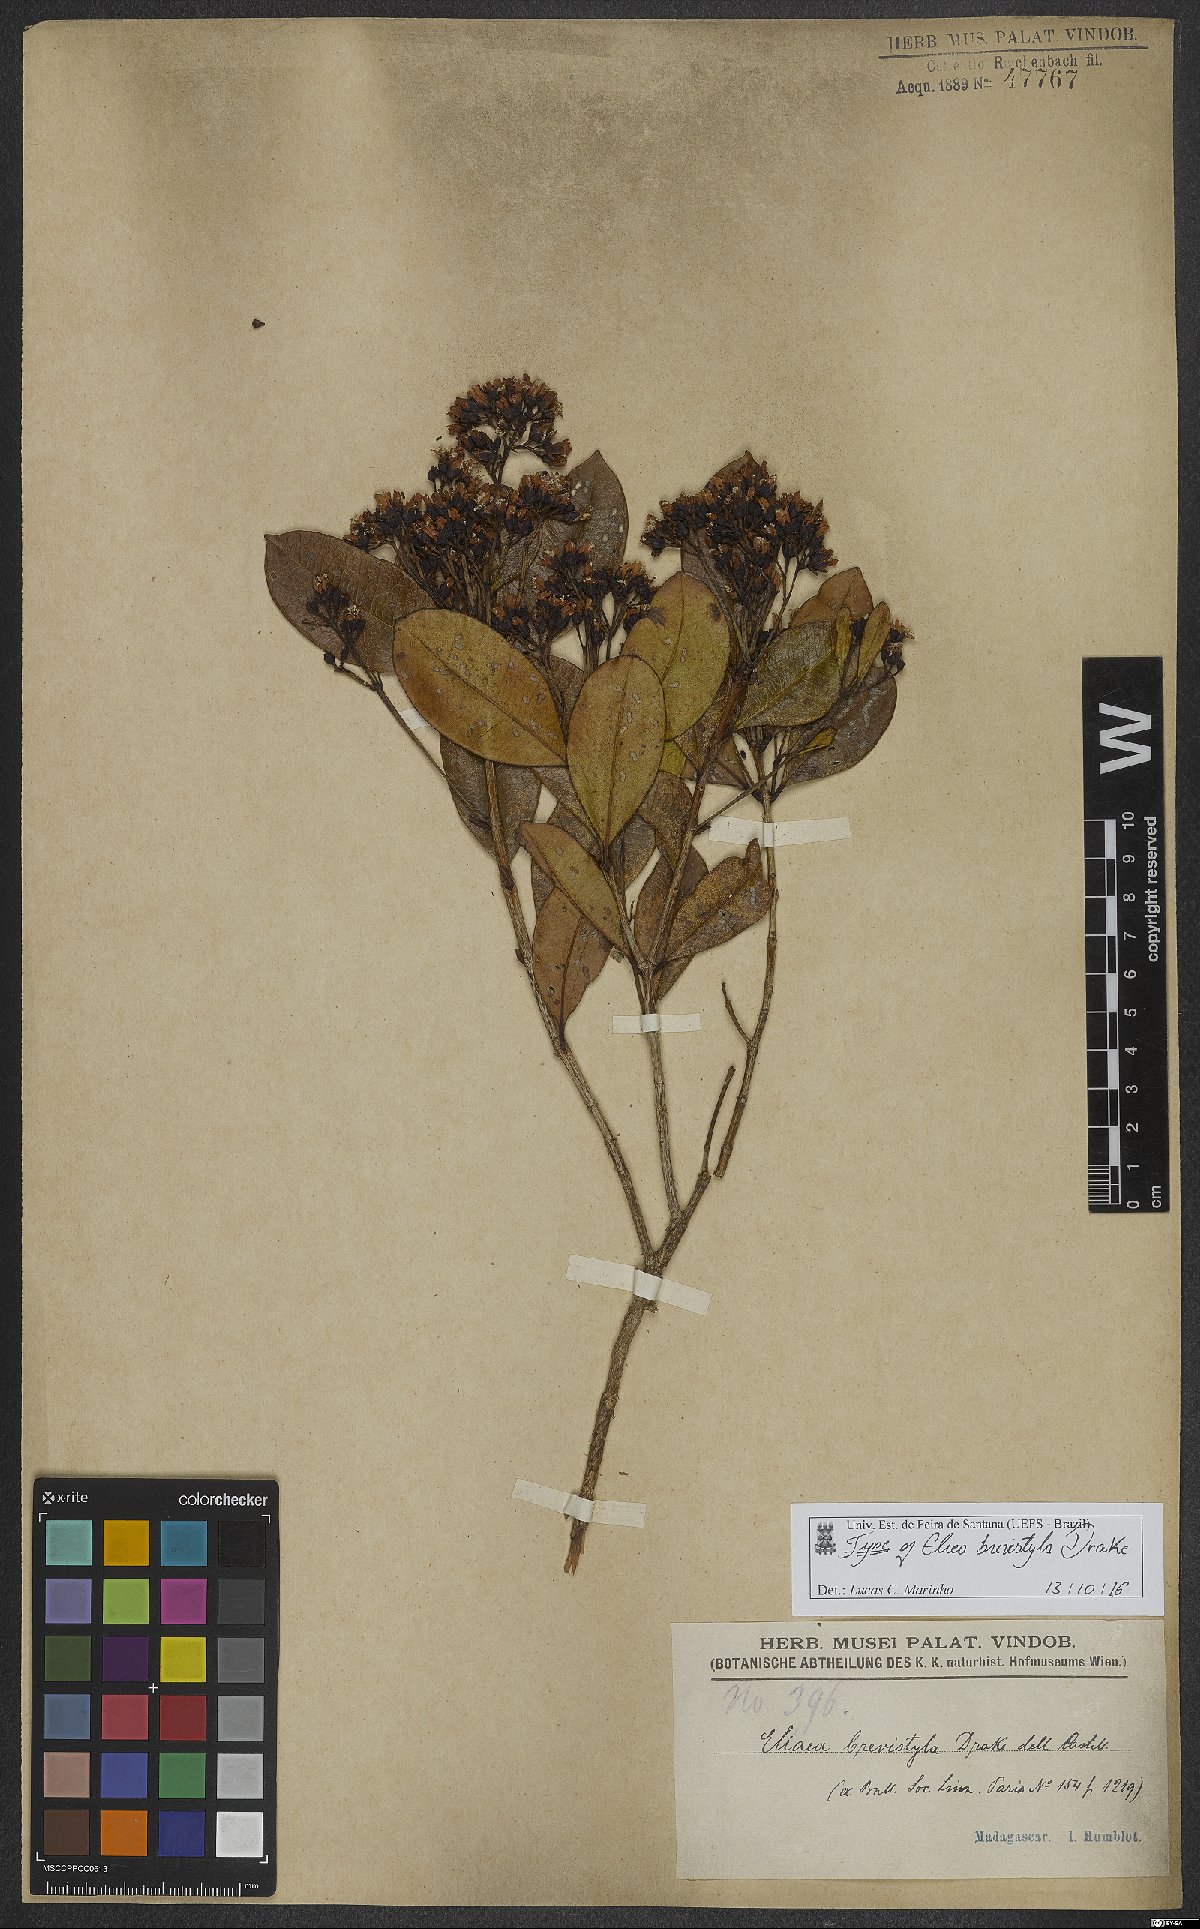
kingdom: Plantae
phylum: Tracheophyta
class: Magnoliopsida
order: Malpighiales
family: Hypericaceae
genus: Eliea
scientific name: Eliea articulata
